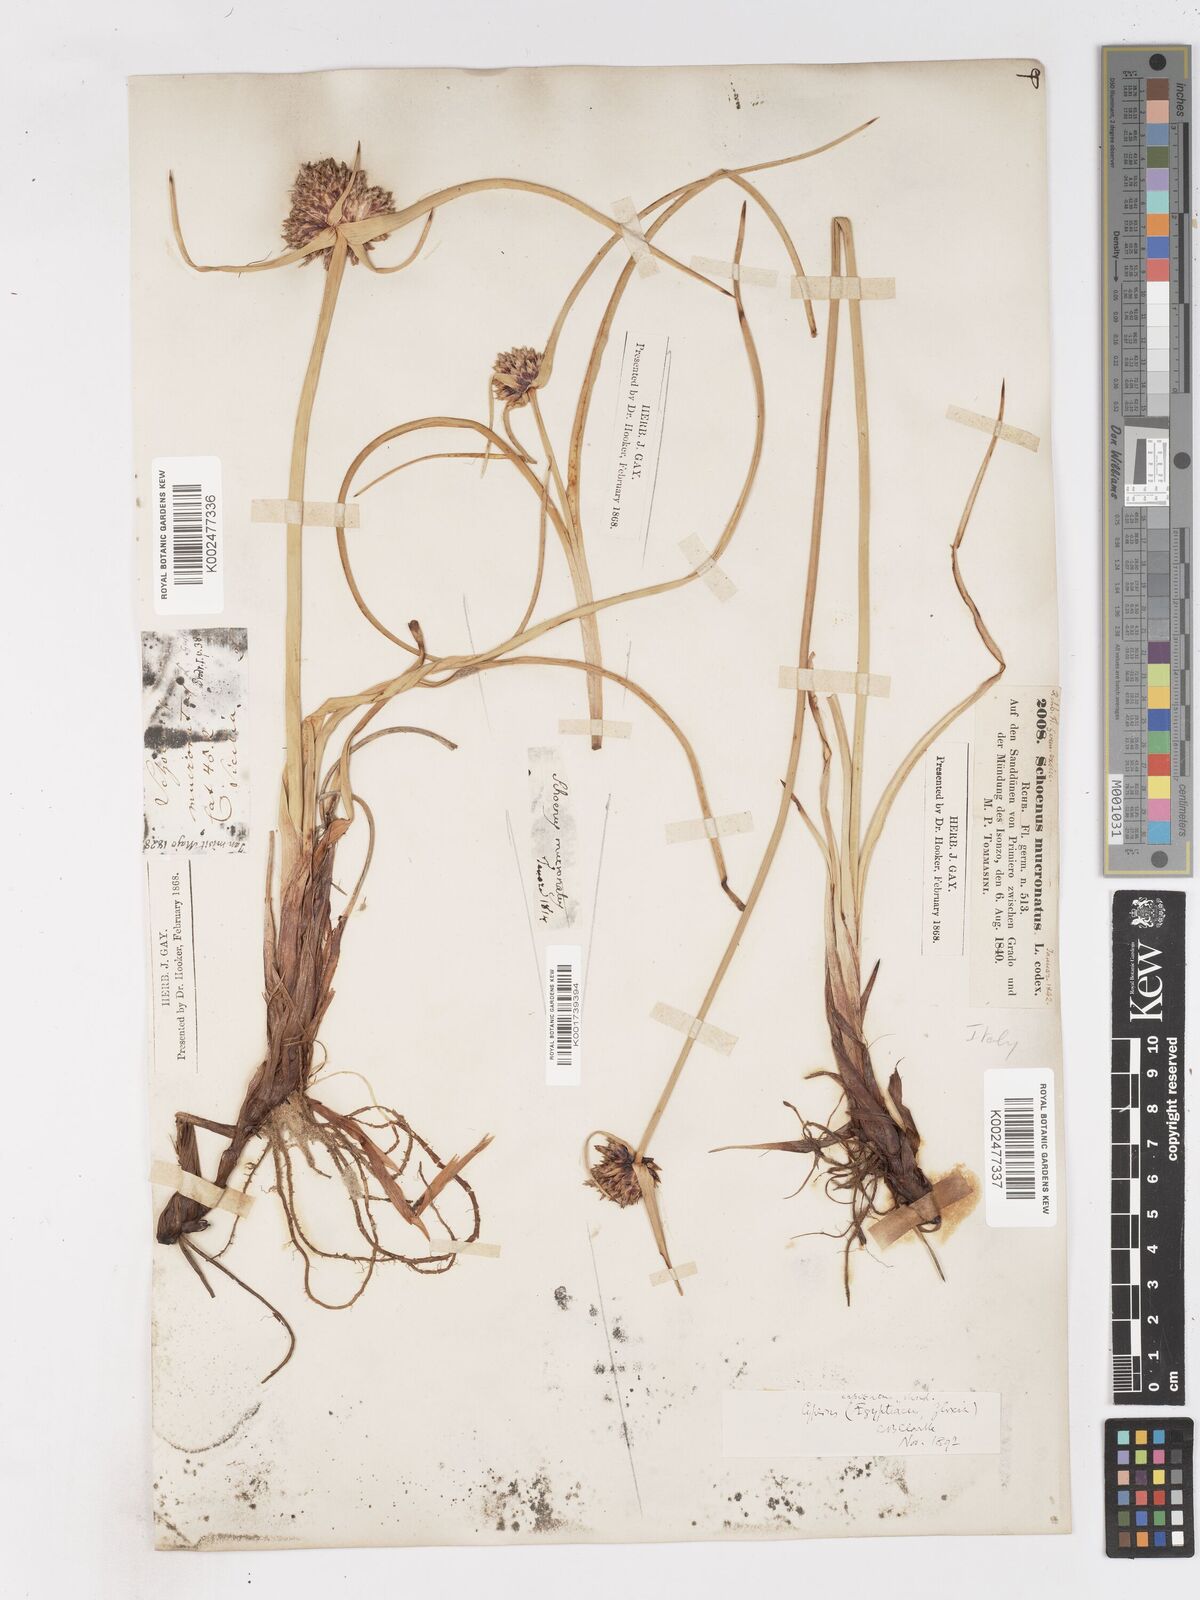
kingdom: Plantae
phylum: Tracheophyta
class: Liliopsida
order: Poales
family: Cyperaceae
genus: Cyperus
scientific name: Cyperus capitatus
